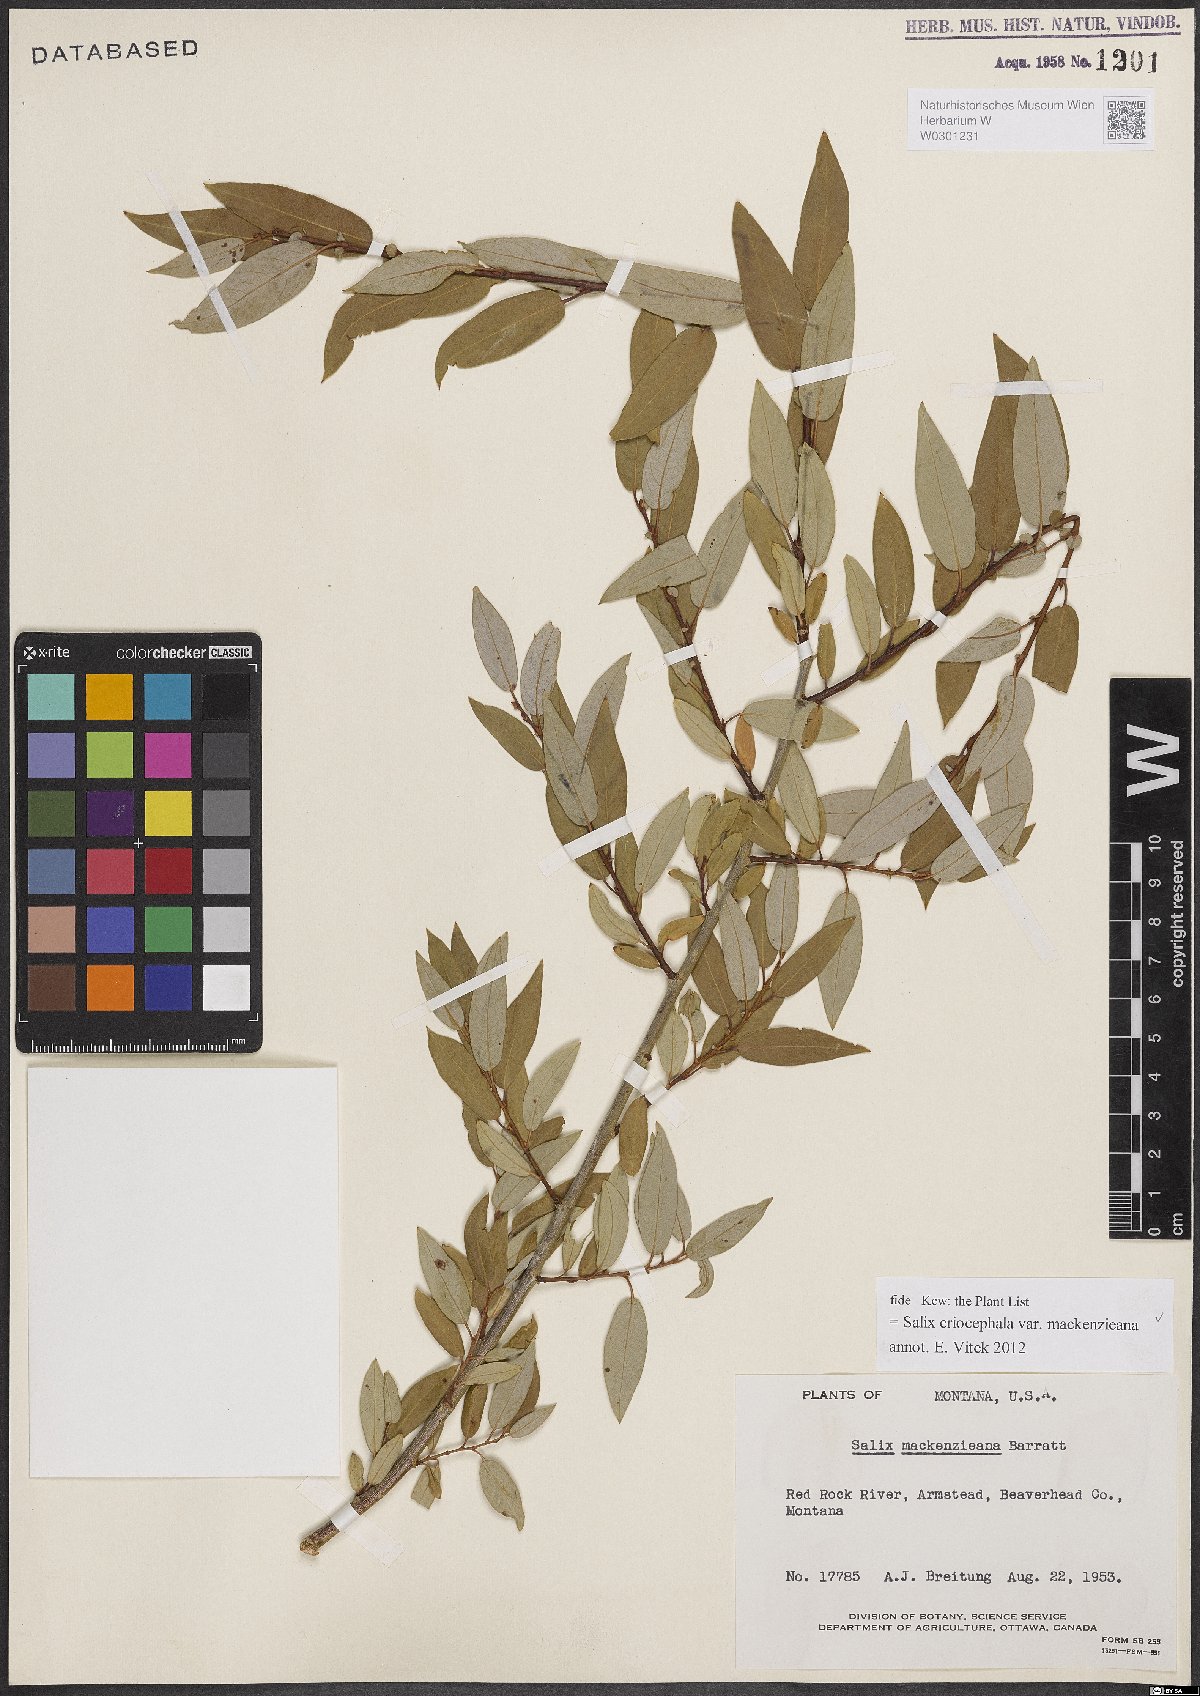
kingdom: Plantae
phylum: Tracheophyta
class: Magnoliopsida
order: Malpighiales
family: Salicaceae
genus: Salix
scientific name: Salix prolixa
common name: Mackenzie's willow
